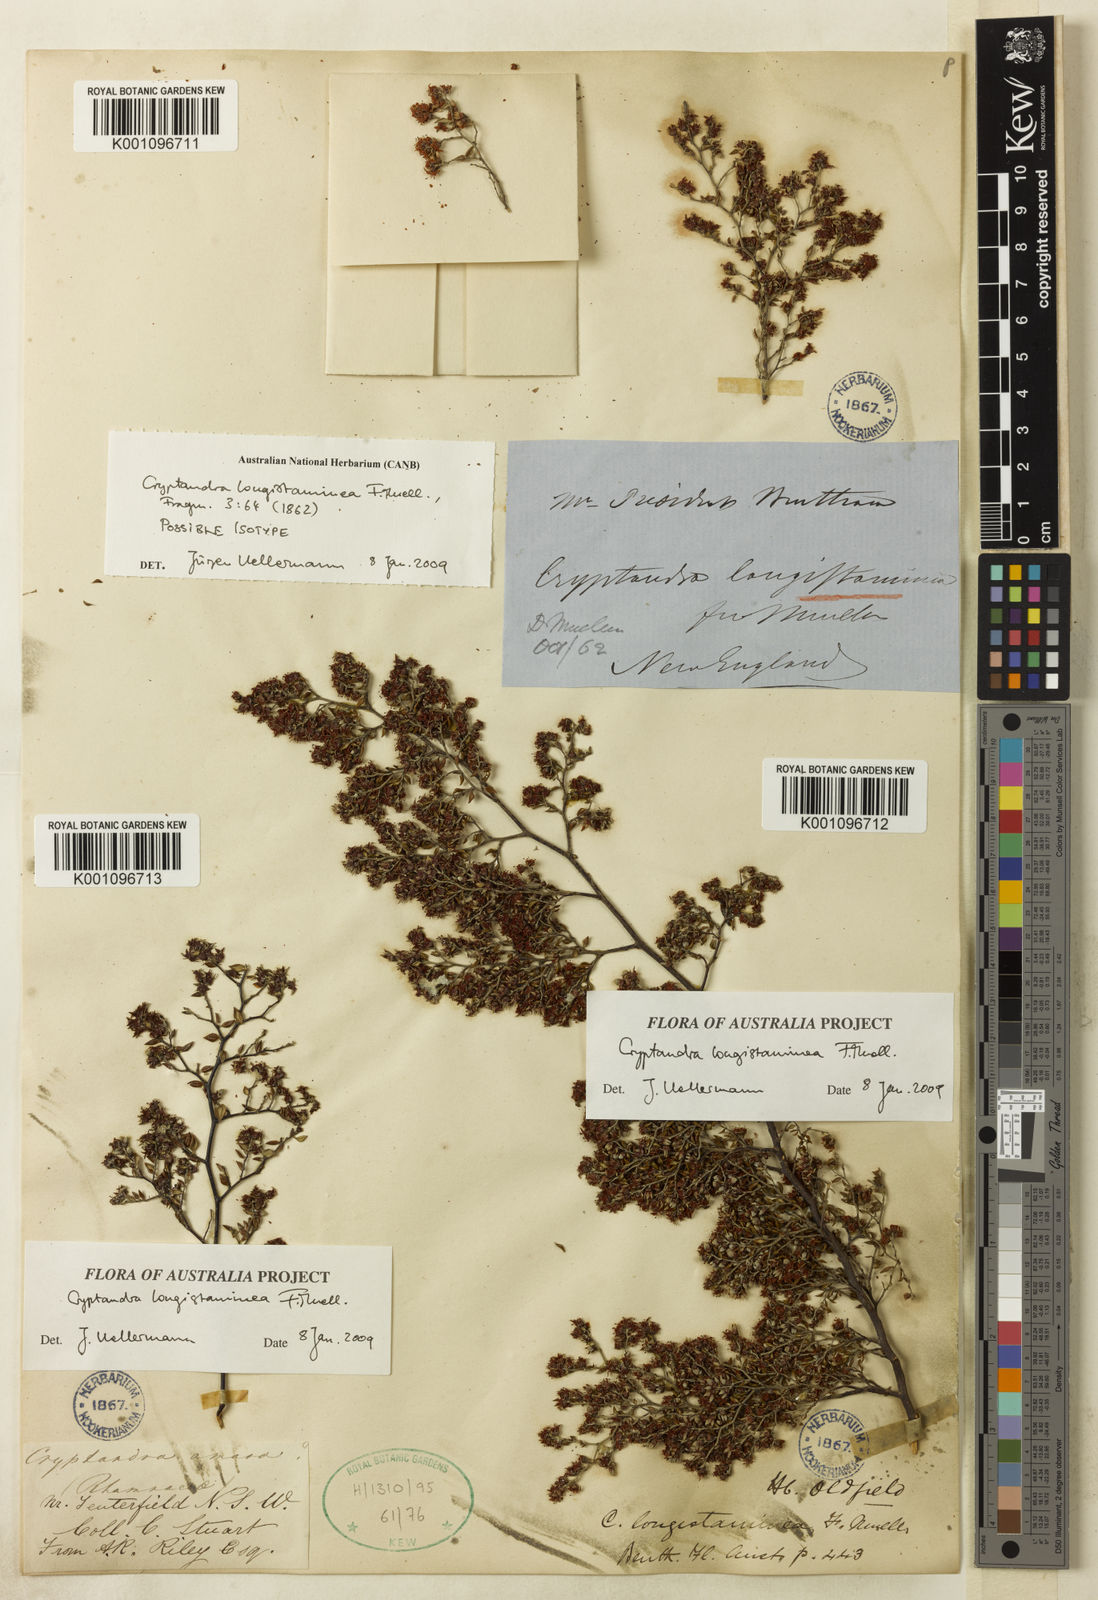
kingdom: Plantae
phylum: Tracheophyta
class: Magnoliopsida
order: Rosales
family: Rhamnaceae
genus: Cryptandra
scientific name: Cryptandra longistaminea
